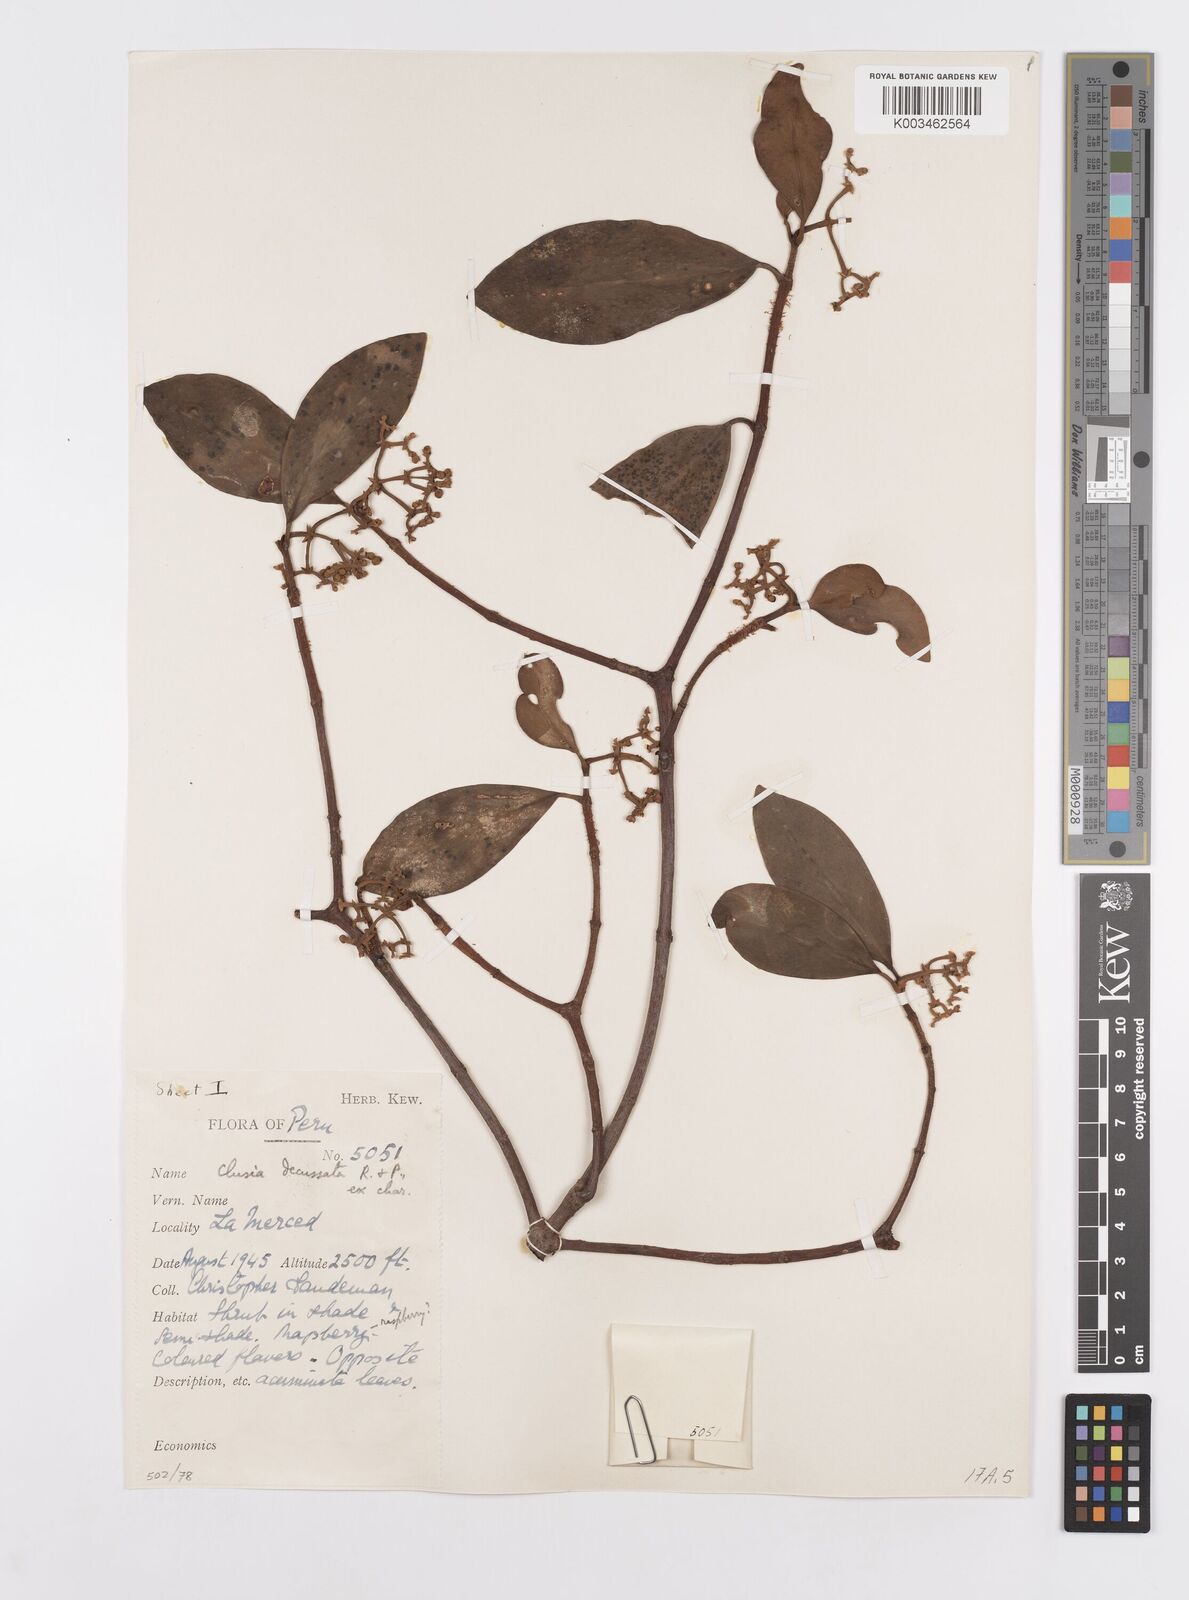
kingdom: Plantae
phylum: Tracheophyta
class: Magnoliopsida
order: Malpighiales
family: Clusiaceae
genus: Clusia
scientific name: Clusia decussata
